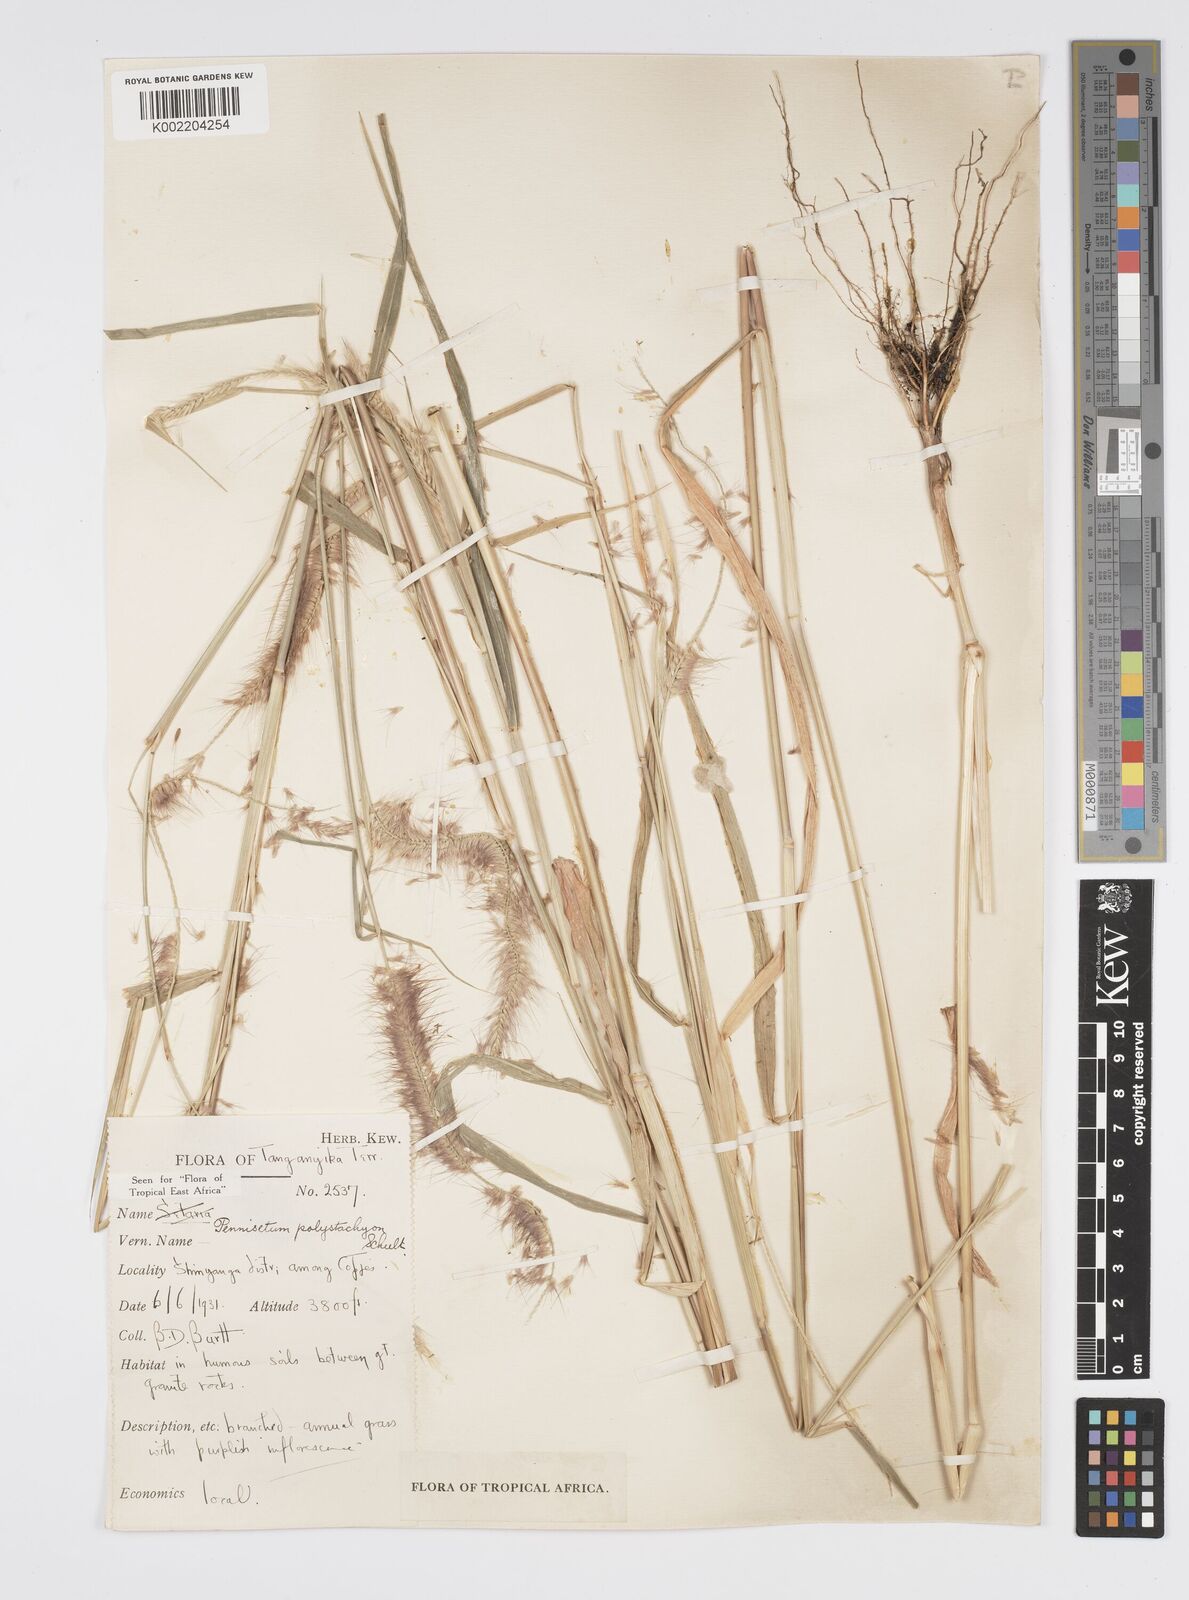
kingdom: Plantae
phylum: Tracheophyta
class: Liliopsida
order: Poales
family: Poaceae
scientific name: Poaceae
